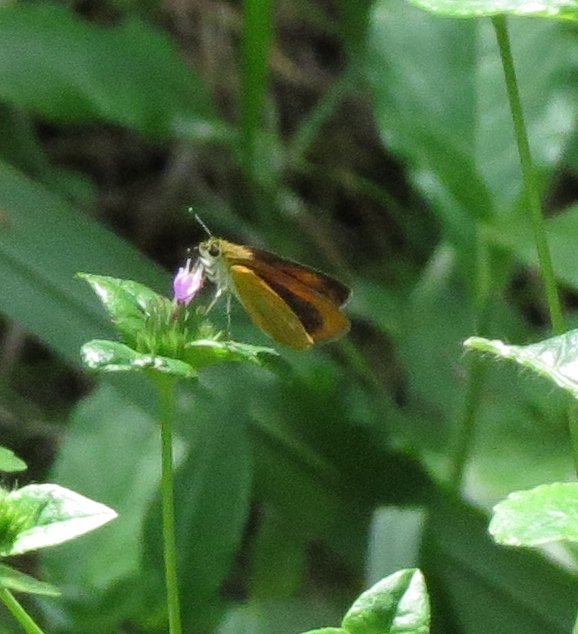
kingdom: Animalia
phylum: Arthropoda
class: Insecta
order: Lepidoptera
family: Hesperiidae
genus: Ancyloxypha
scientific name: Ancyloxypha numitor
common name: Least Skipper
